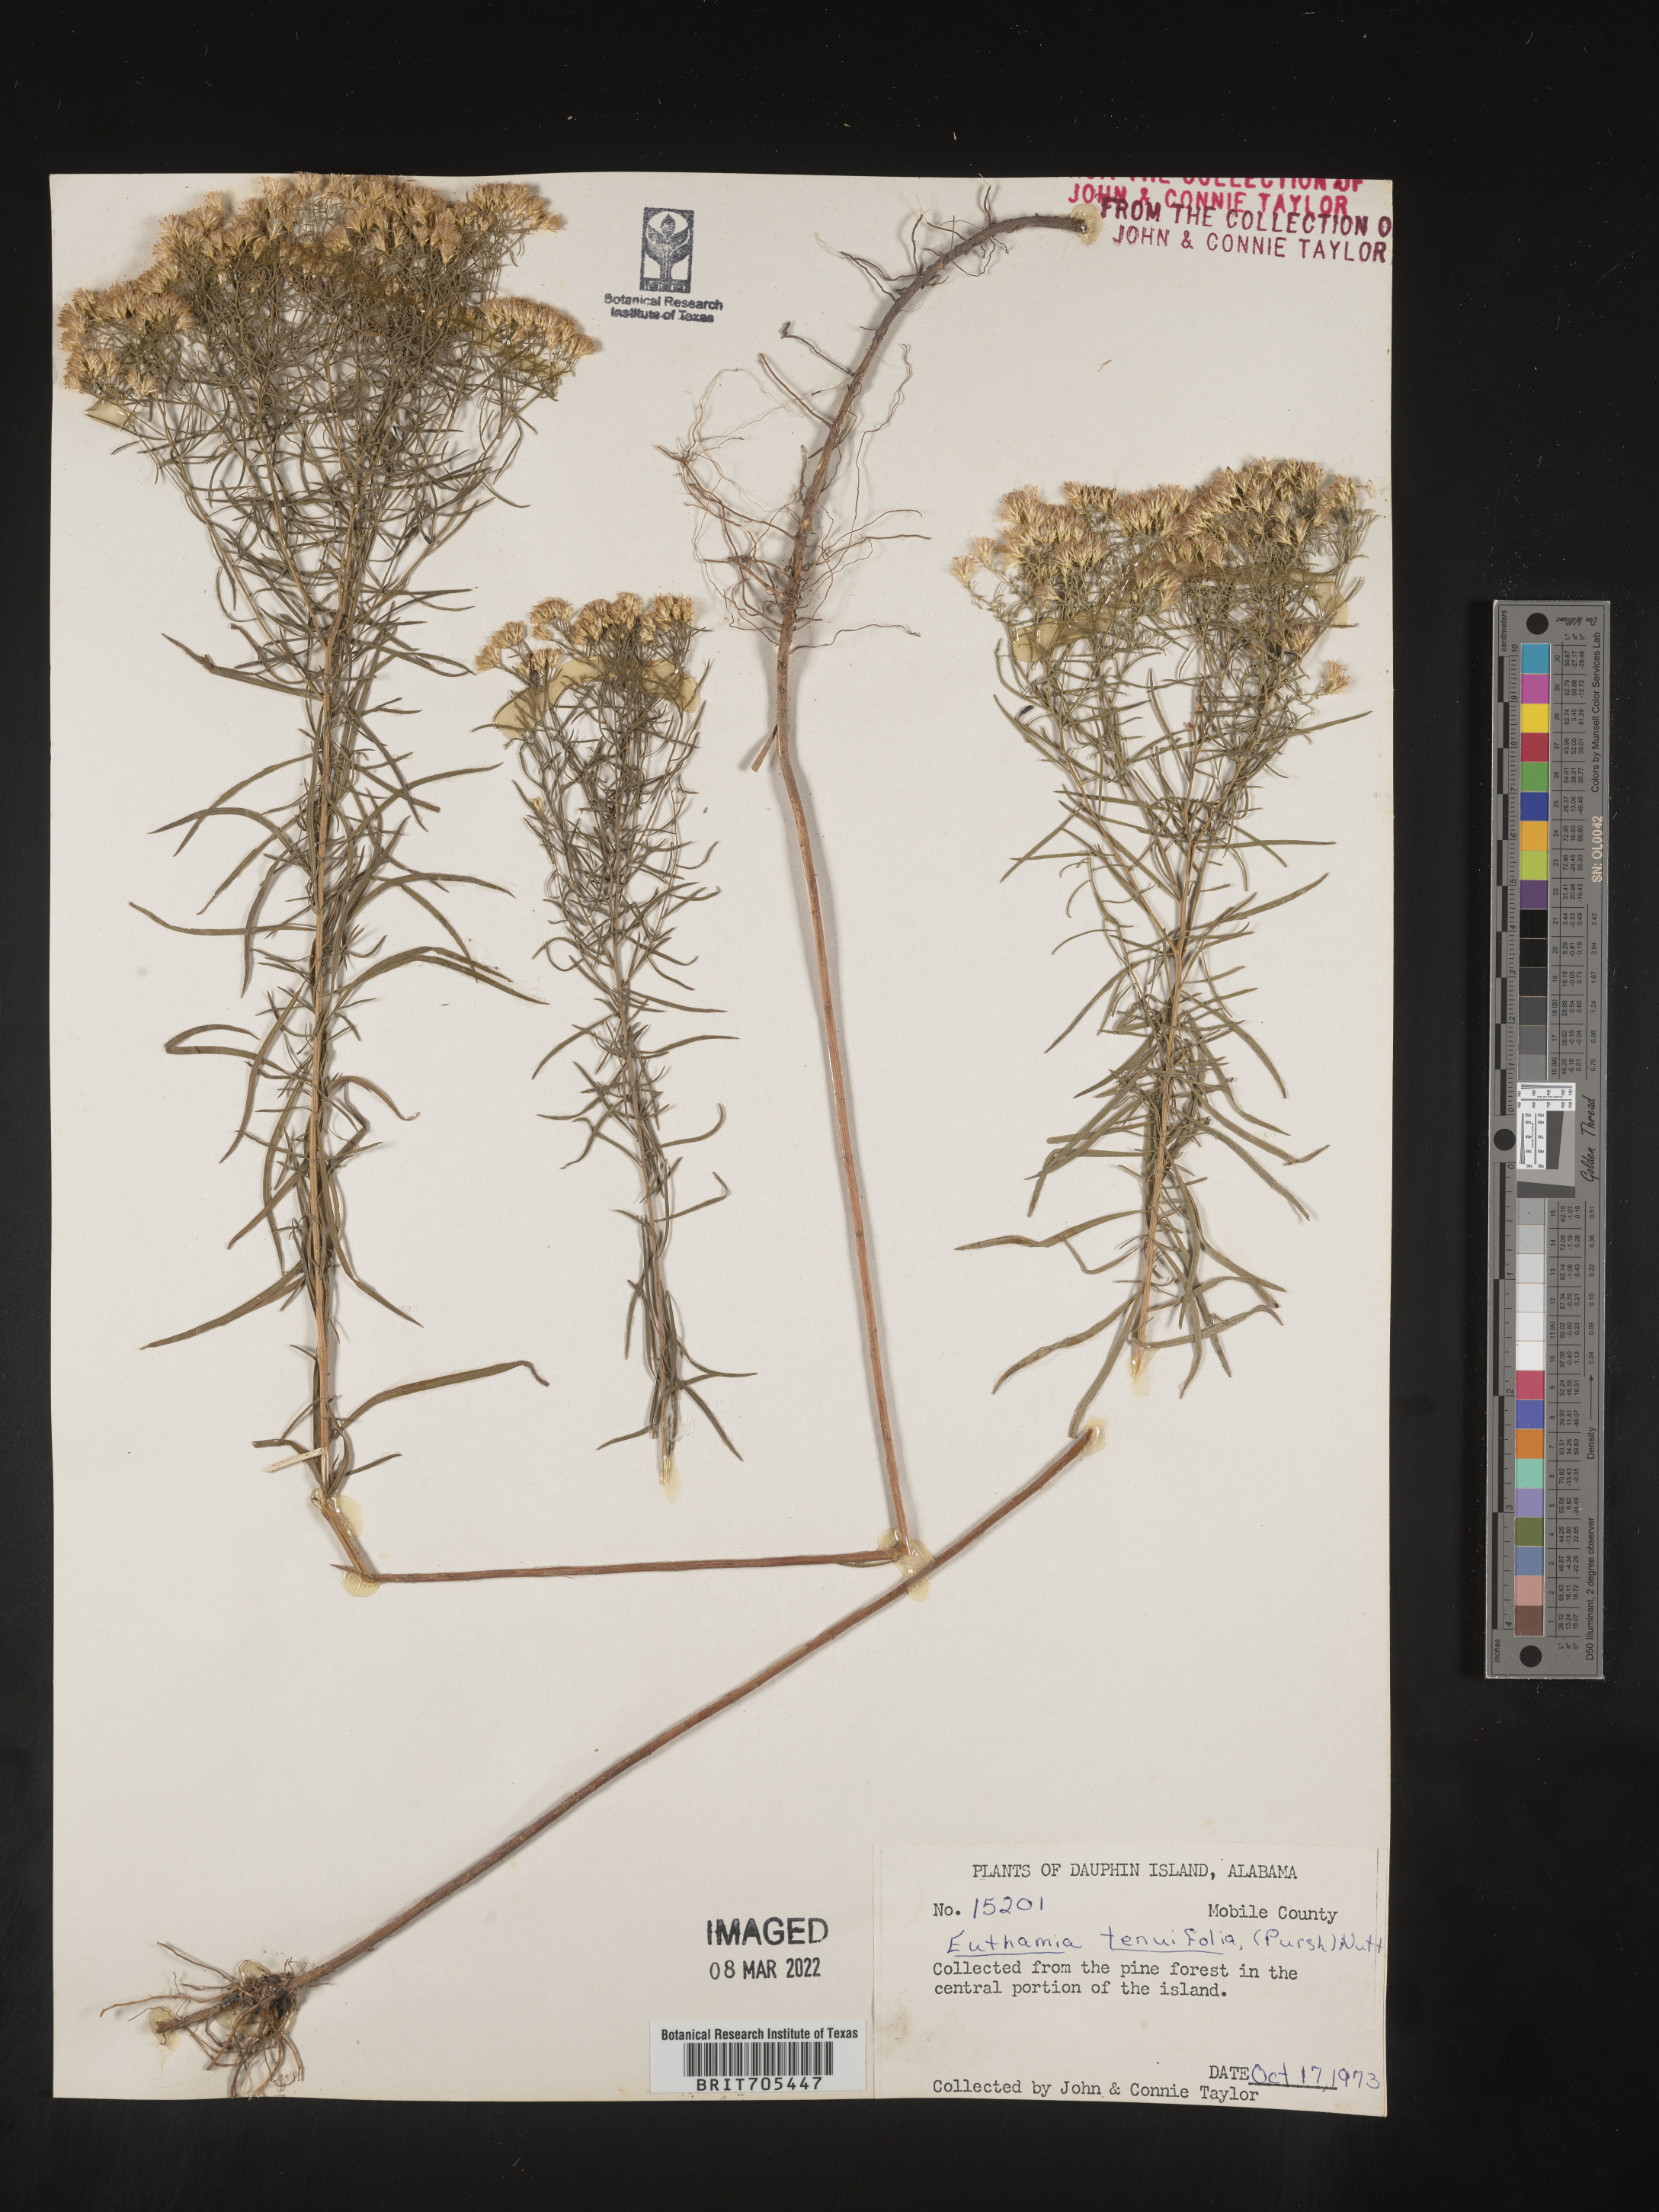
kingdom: Plantae
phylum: Tracheophyta
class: Magnoliopsida
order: Asterales
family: Asteraceae
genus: Euthamia
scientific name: Euthamia caroliniana
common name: Coastal plain goldentop
